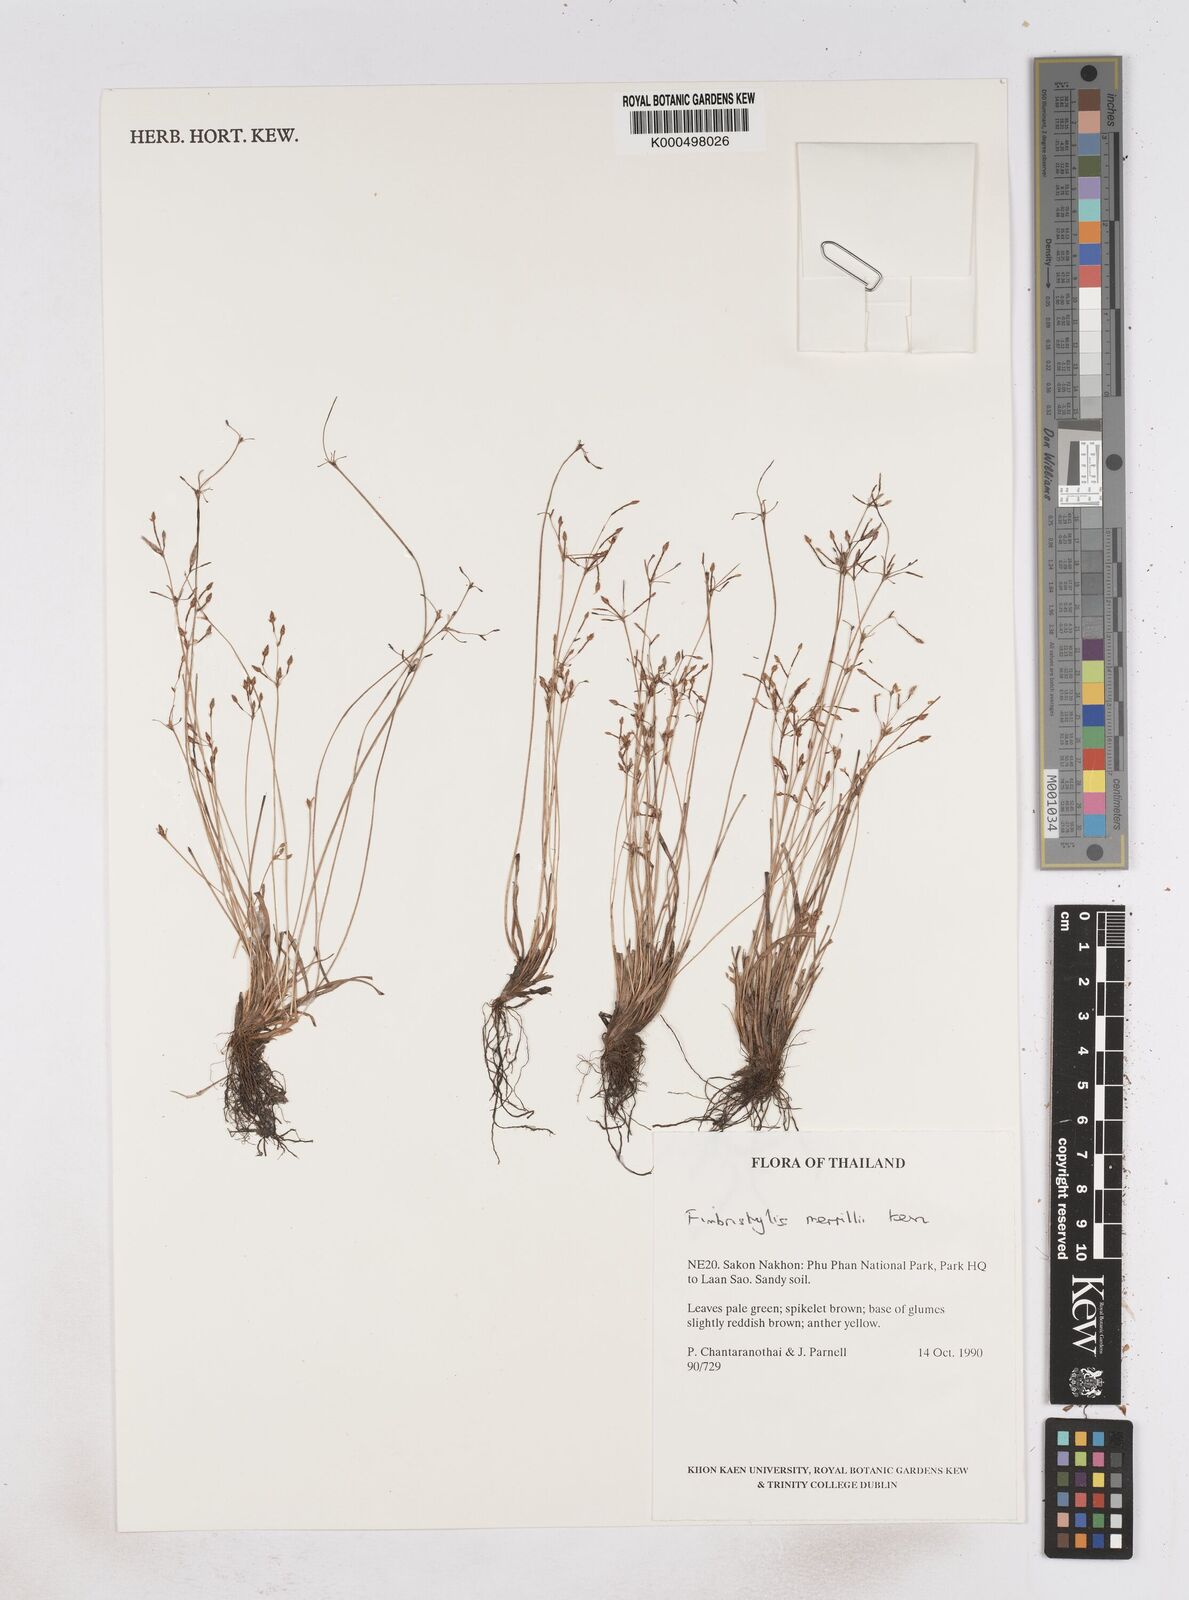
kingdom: Plantae
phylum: Tracheophyta
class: Liliopsida
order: Poales
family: Cyperaceae
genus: Fimbristylis
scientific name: Fimbristylis merrillii
